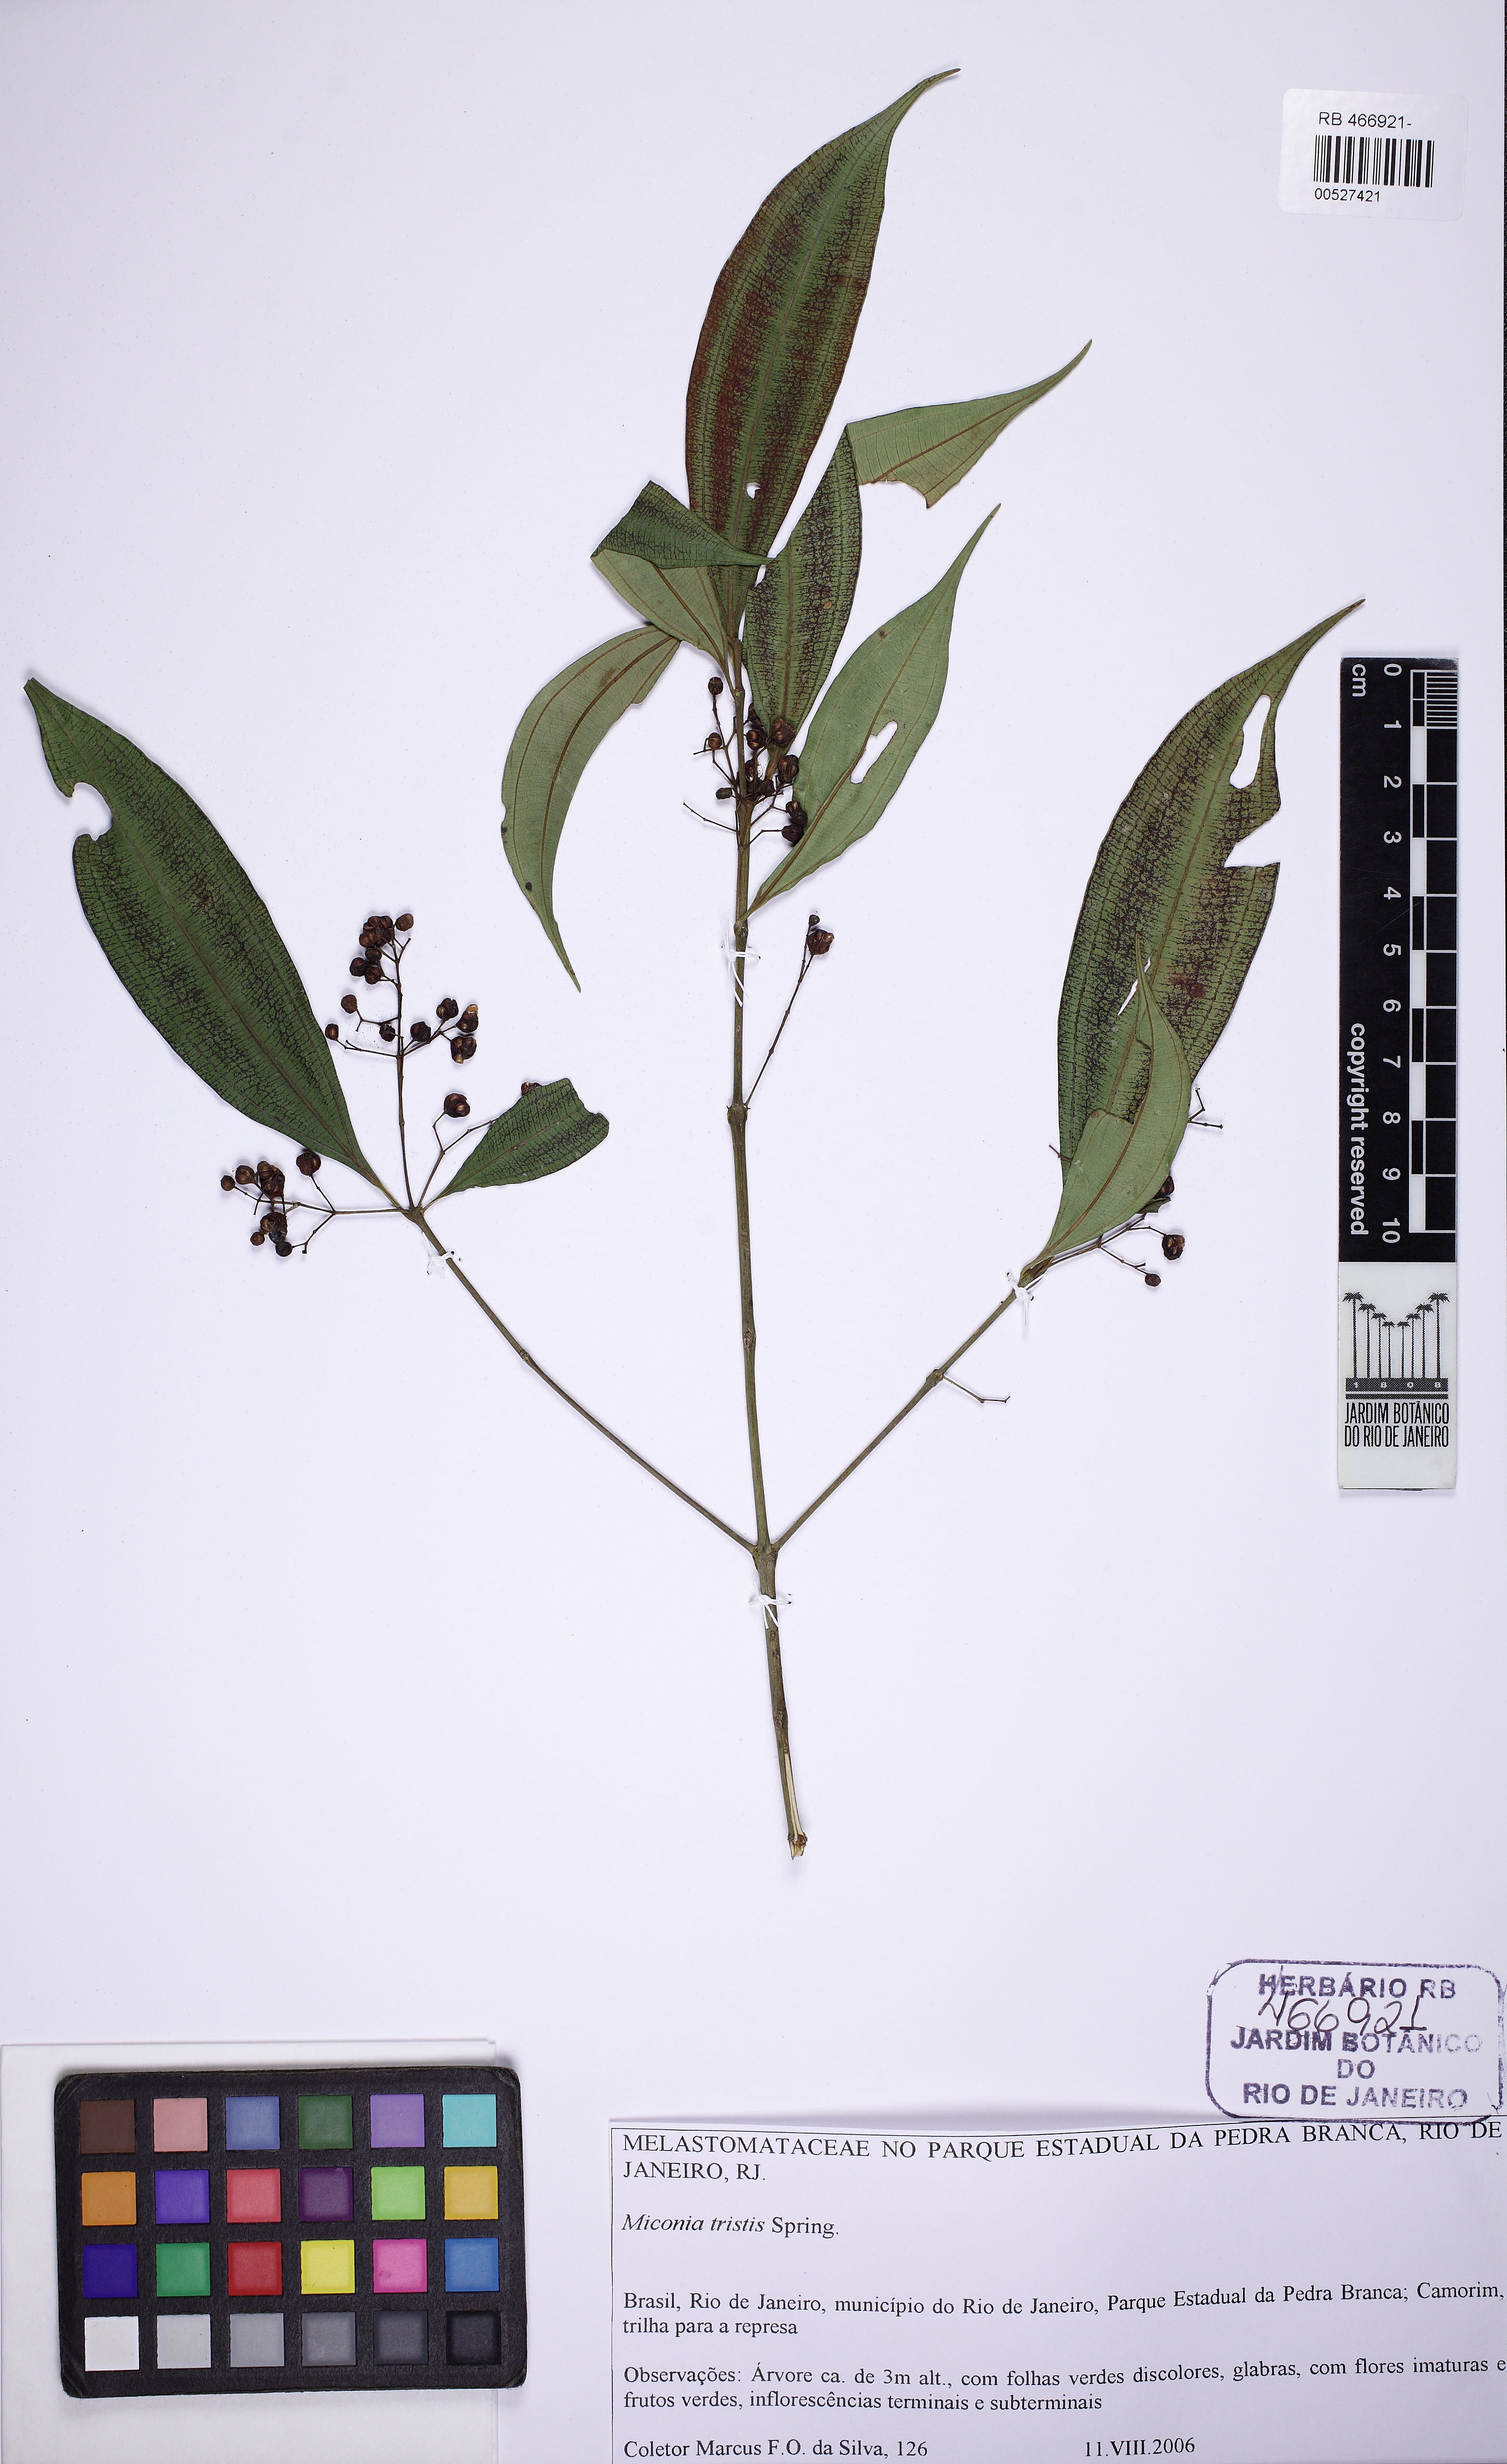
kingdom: Plantae
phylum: Tracheophyta
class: Magnoliopsida
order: Myrtales
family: Melastomataceae
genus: Miconia
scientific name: Miconia tristis
